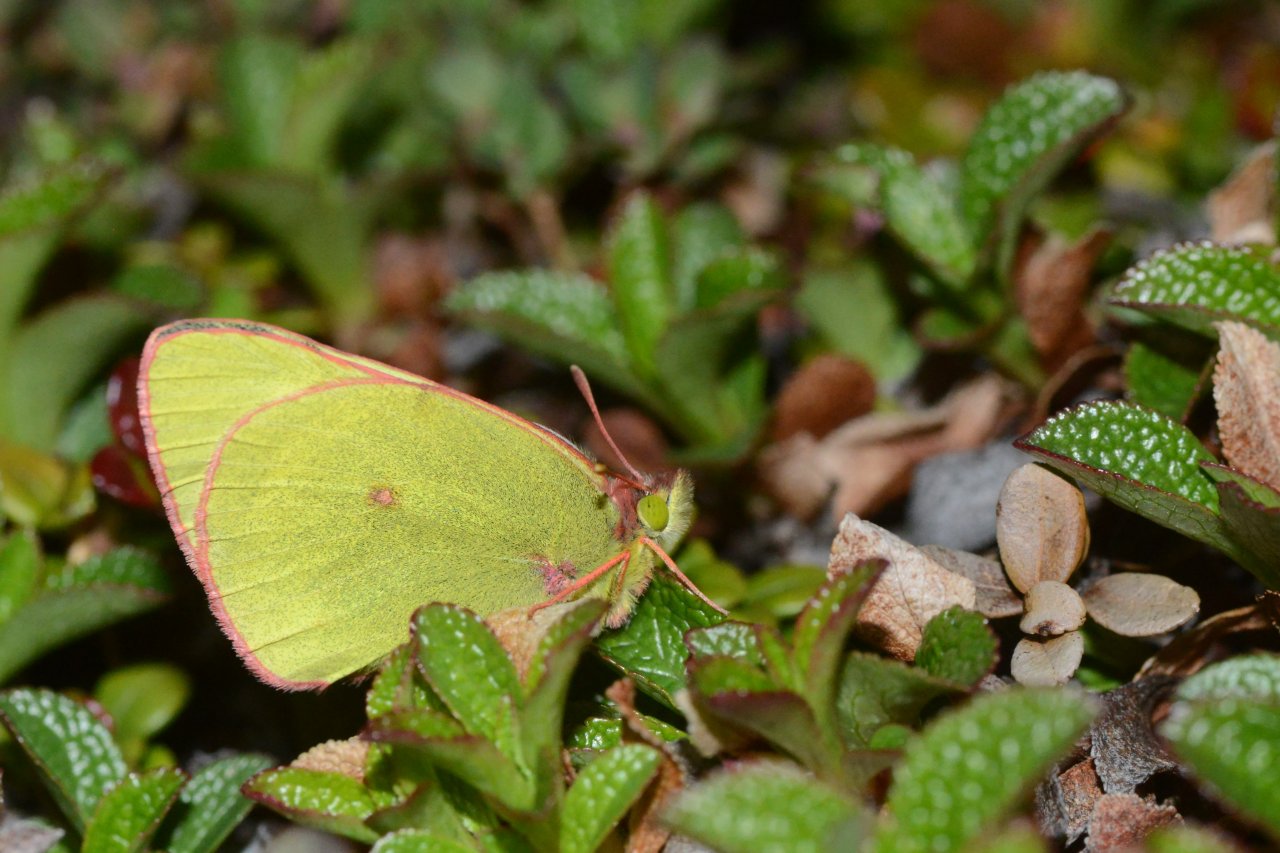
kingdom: Animalia
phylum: Arthropoda
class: Insecta
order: Lepidoptera
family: Pieridae
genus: Colias
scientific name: Colias pelidne
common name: Pelidne Sulphur
